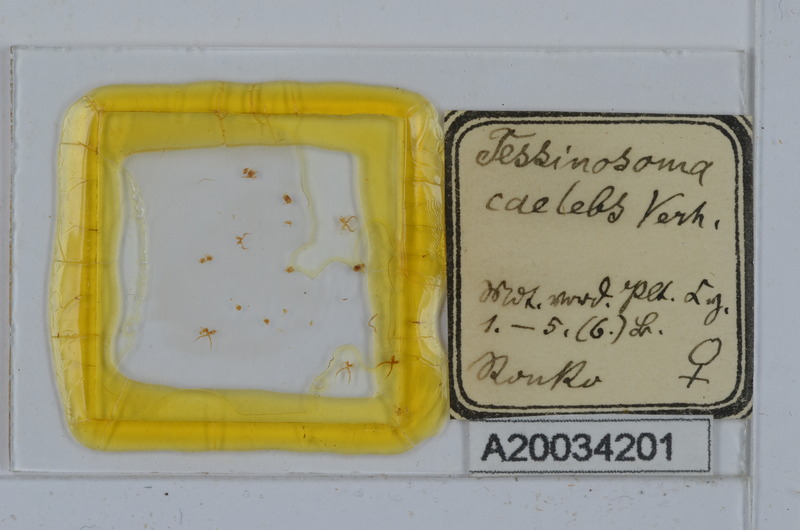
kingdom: Animalia
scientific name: Animalia
